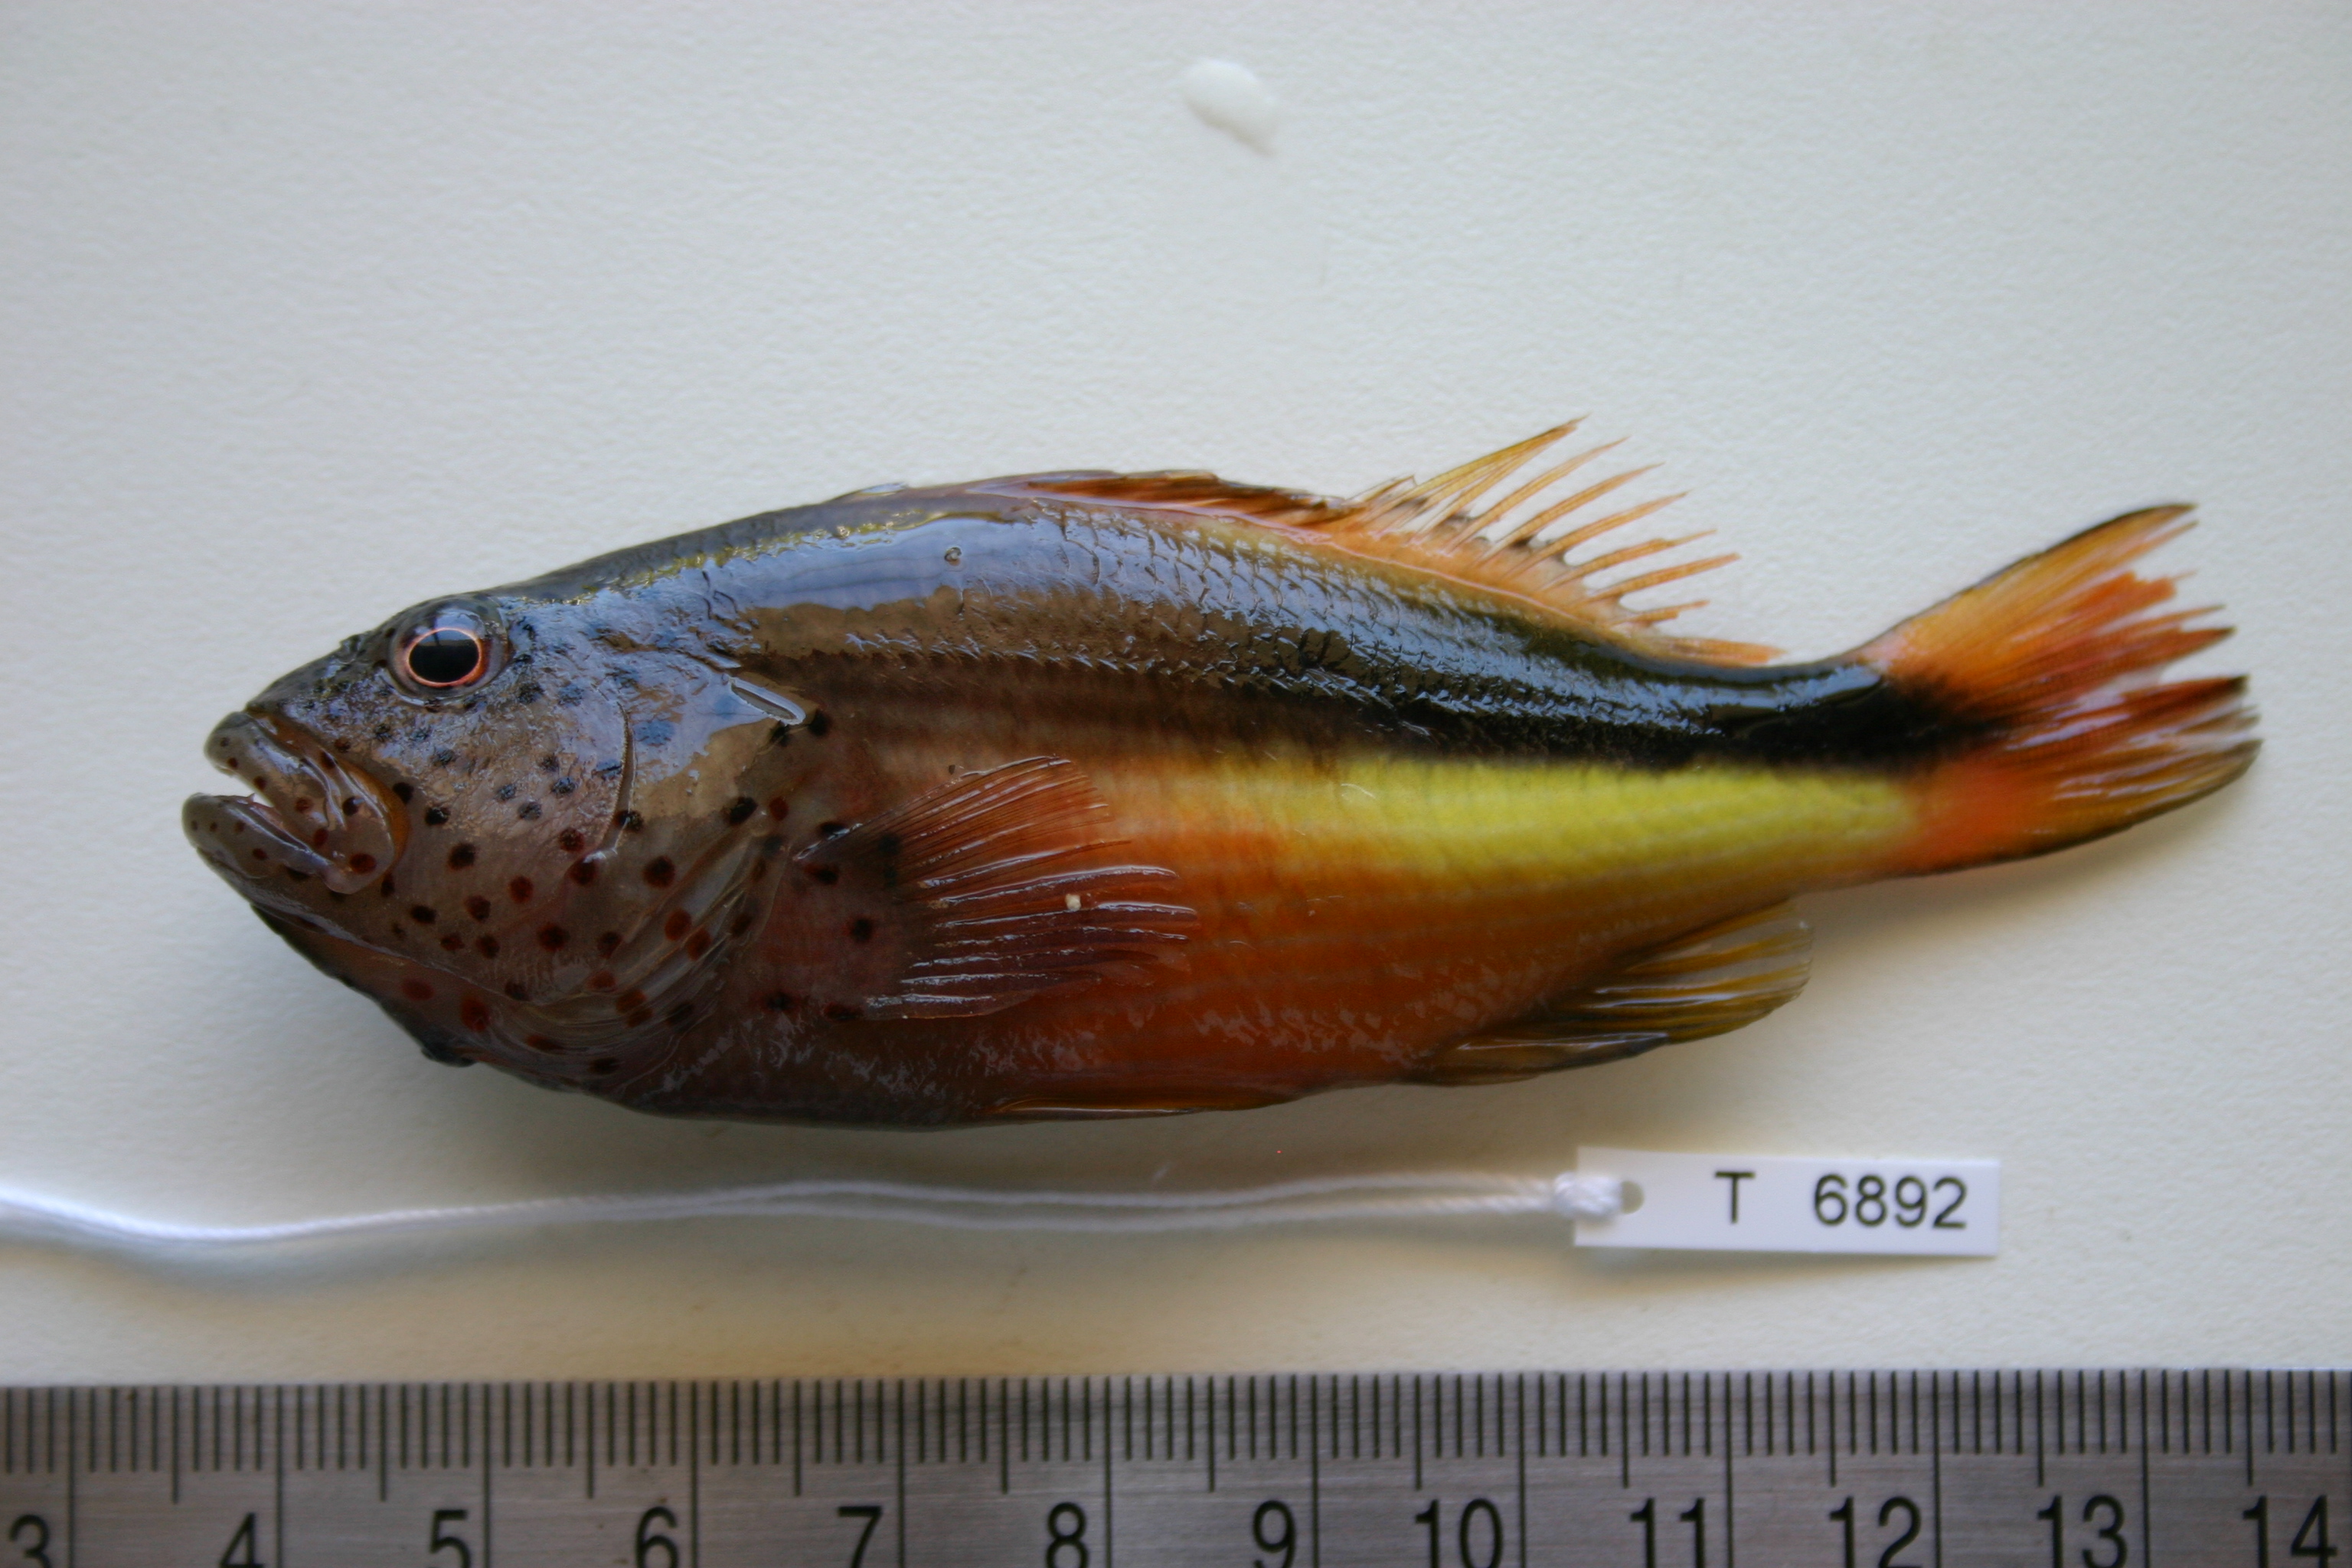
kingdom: Animalia
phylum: Chordata
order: Perciformes
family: Cirrhitidae
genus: Paracirrhites
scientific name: Paracirrhites forsteri
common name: Freckled hawkfish
